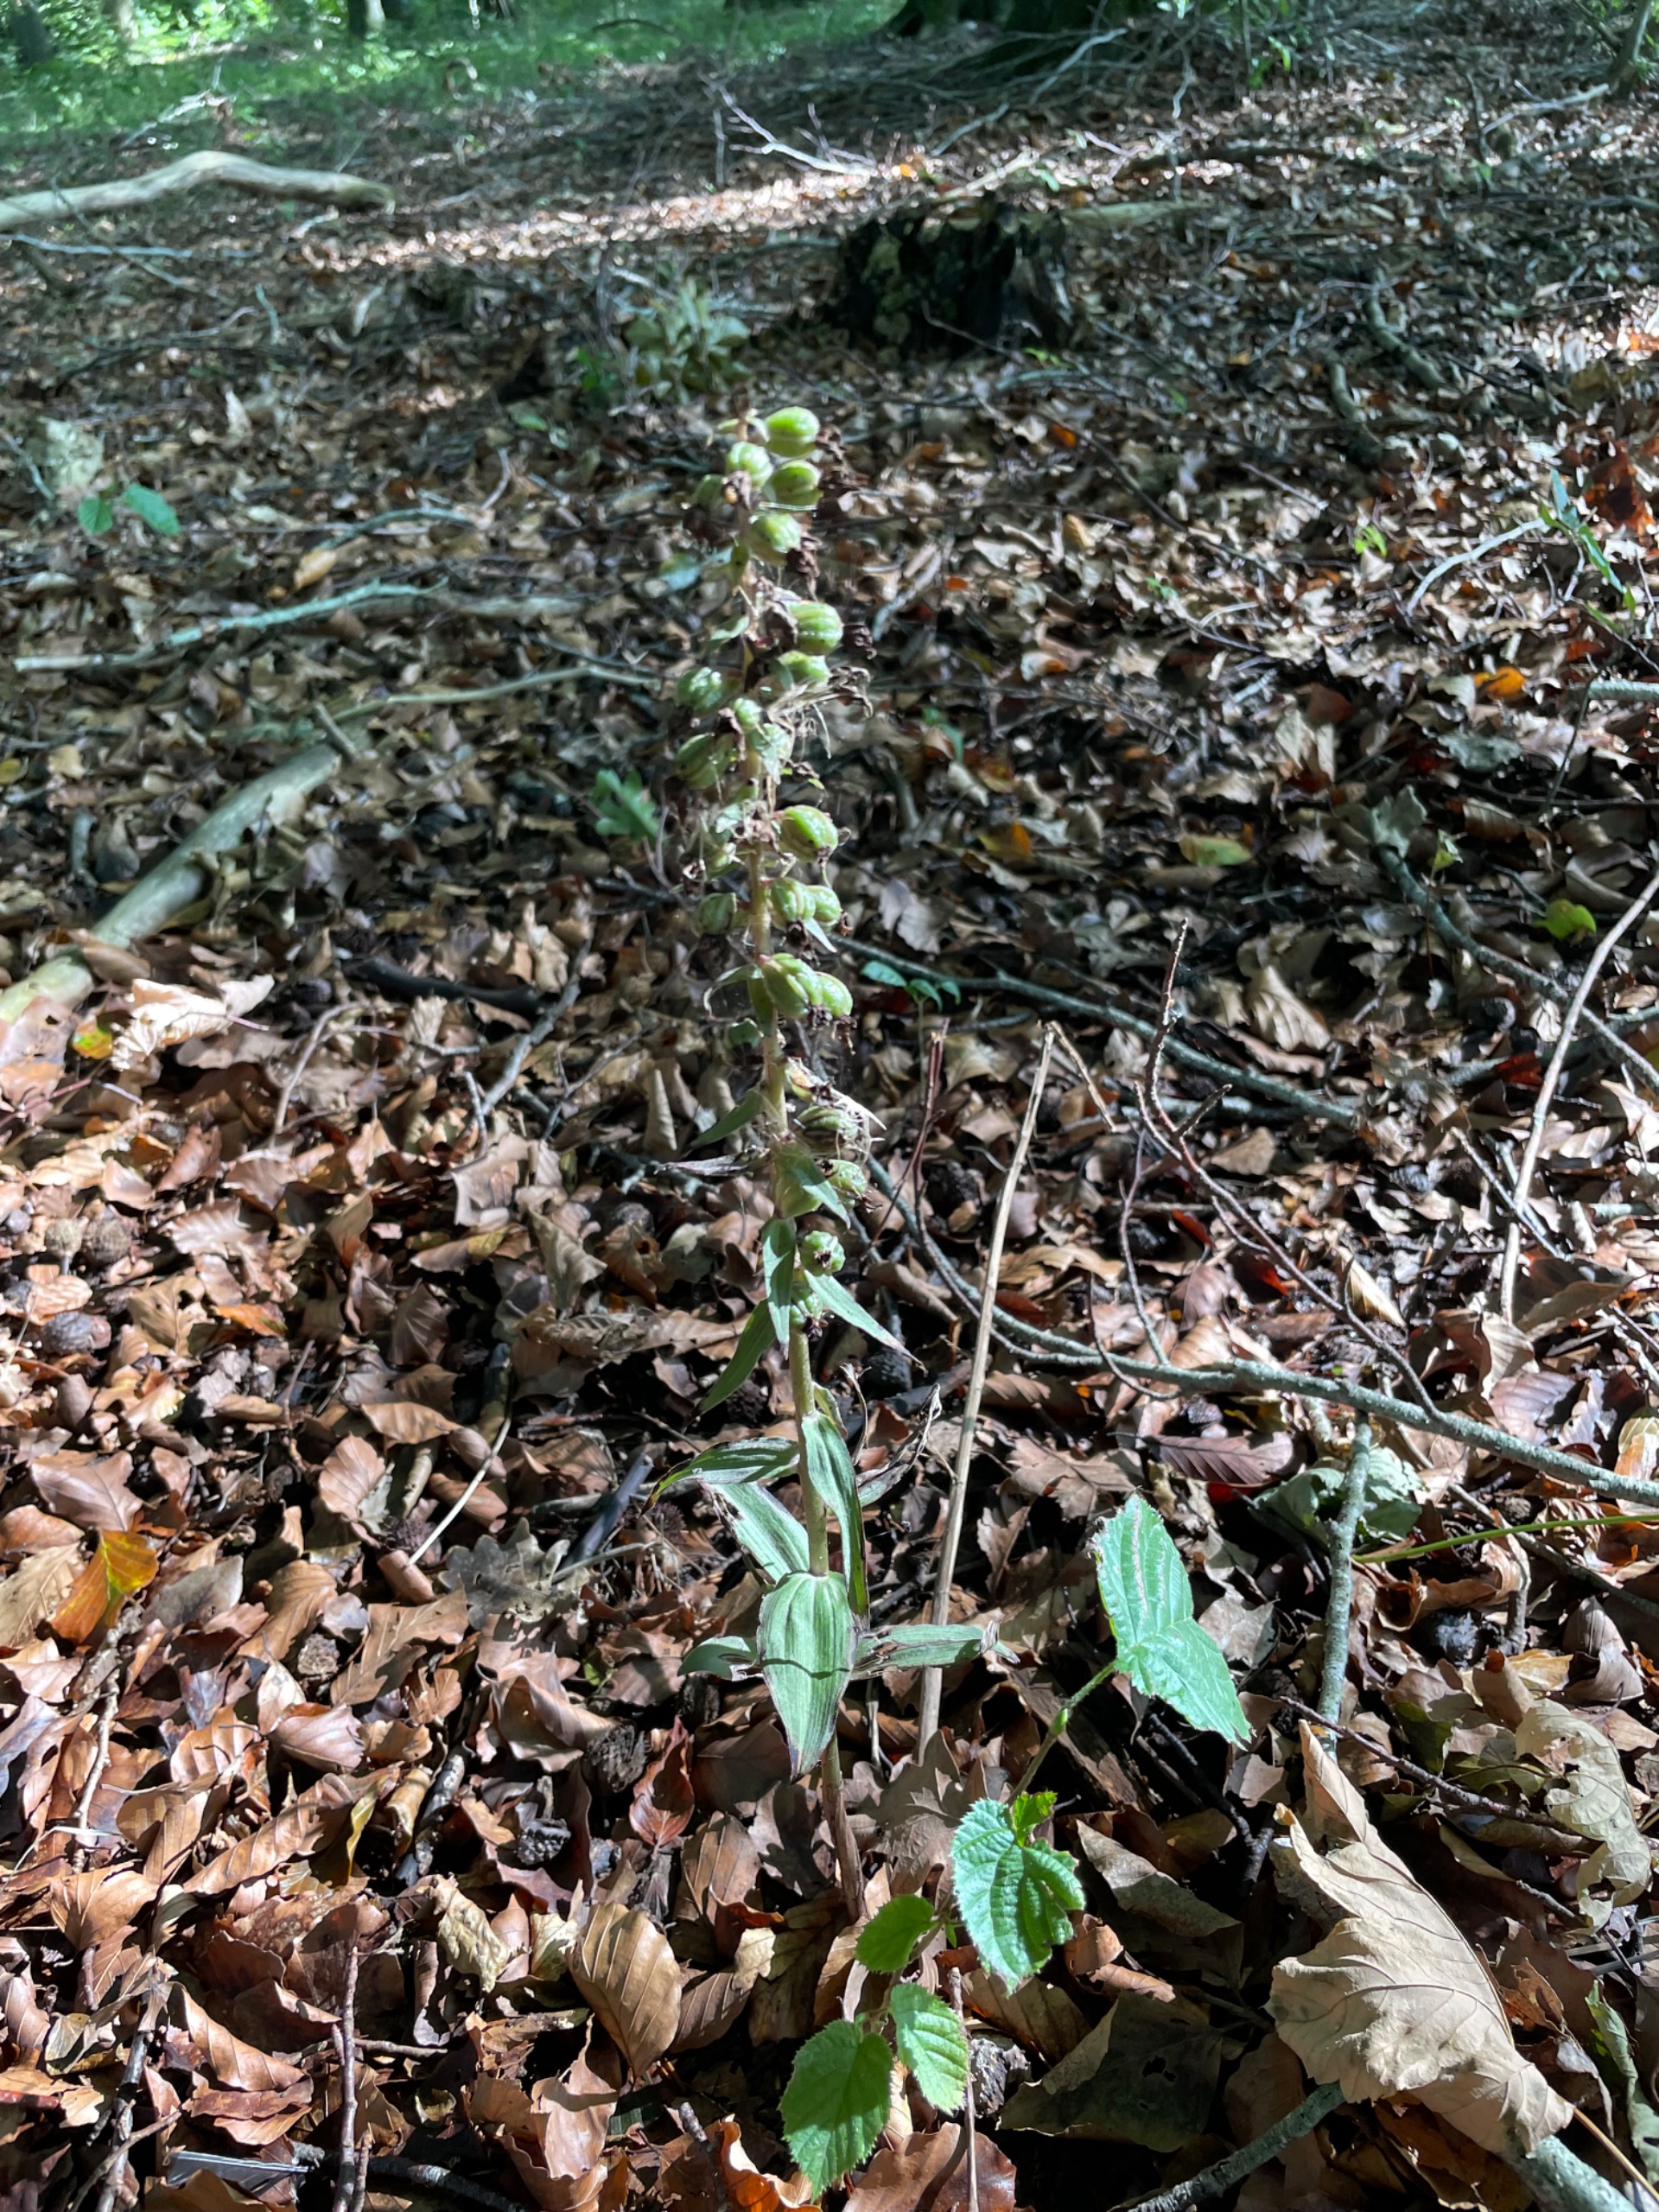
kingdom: Plantae
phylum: Tracheophyta
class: Liliopsida
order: Asparagales
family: Orchidaceae
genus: Epipactis
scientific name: Epipactis helleborine
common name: Skov-hullæbe
